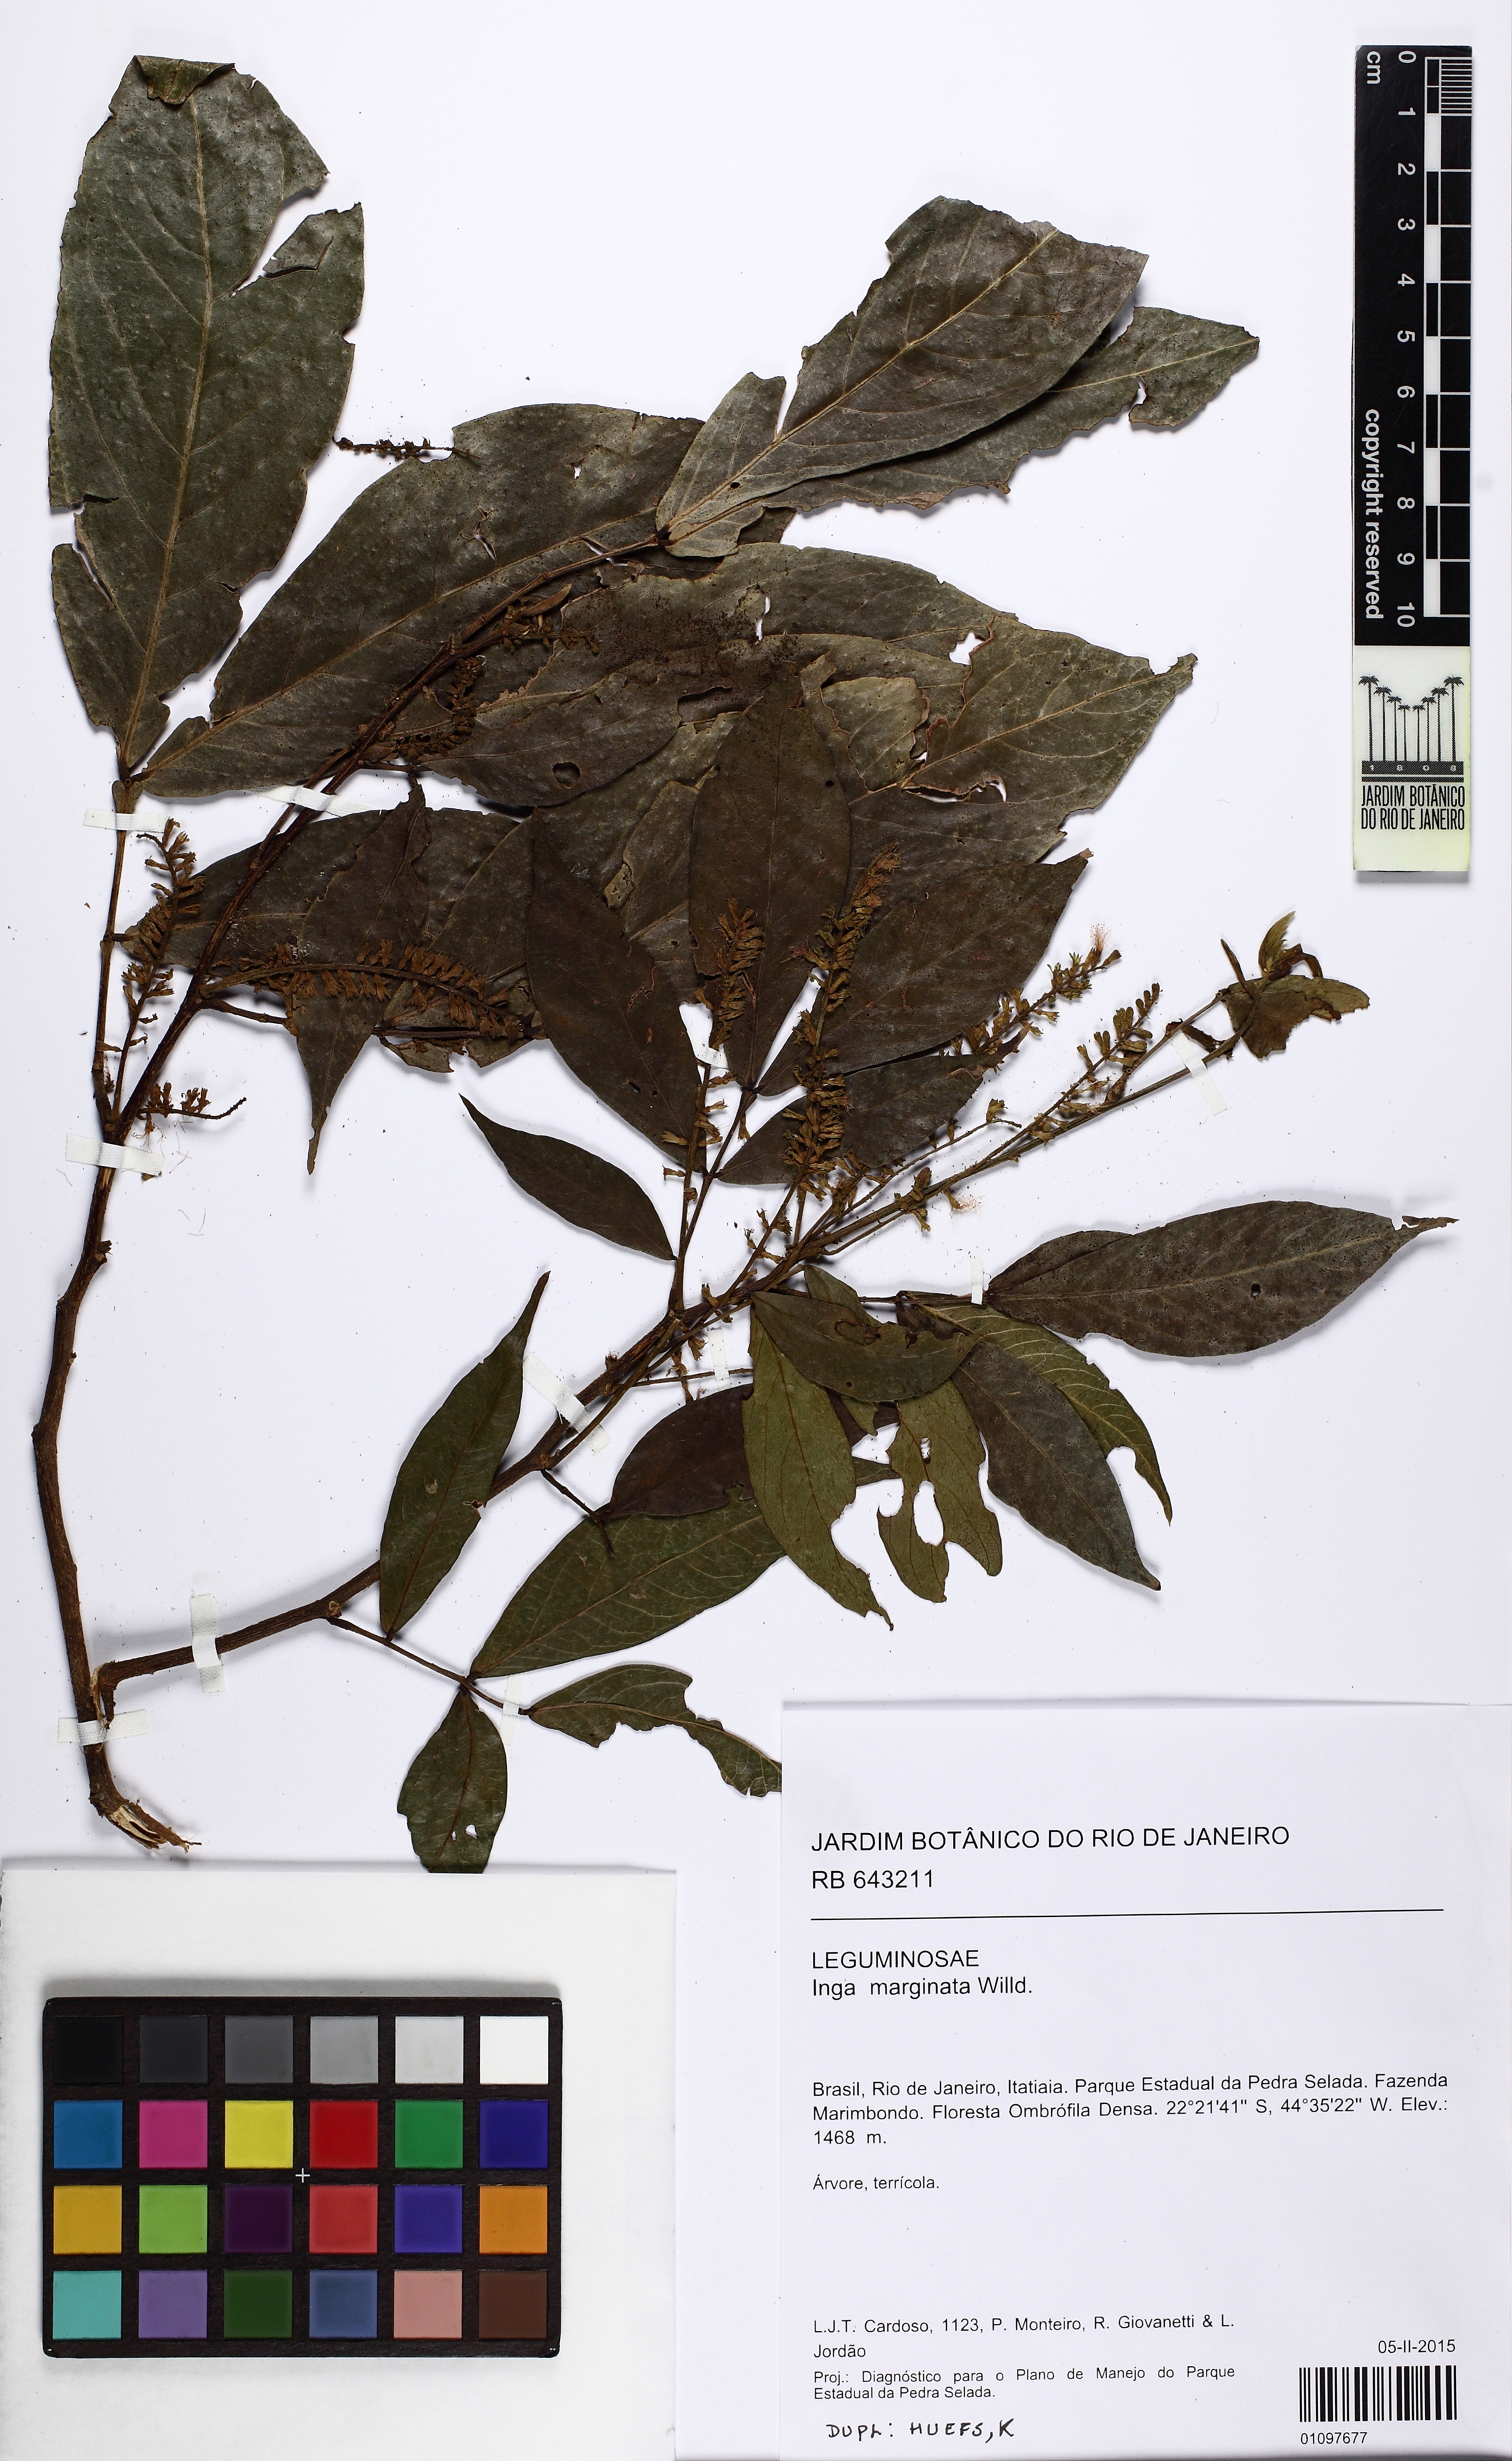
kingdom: Plantae
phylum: Tracheophyta
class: Magnoliopsida
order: Fabales
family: Fabaceae
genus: Inga
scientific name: Inga marginata
